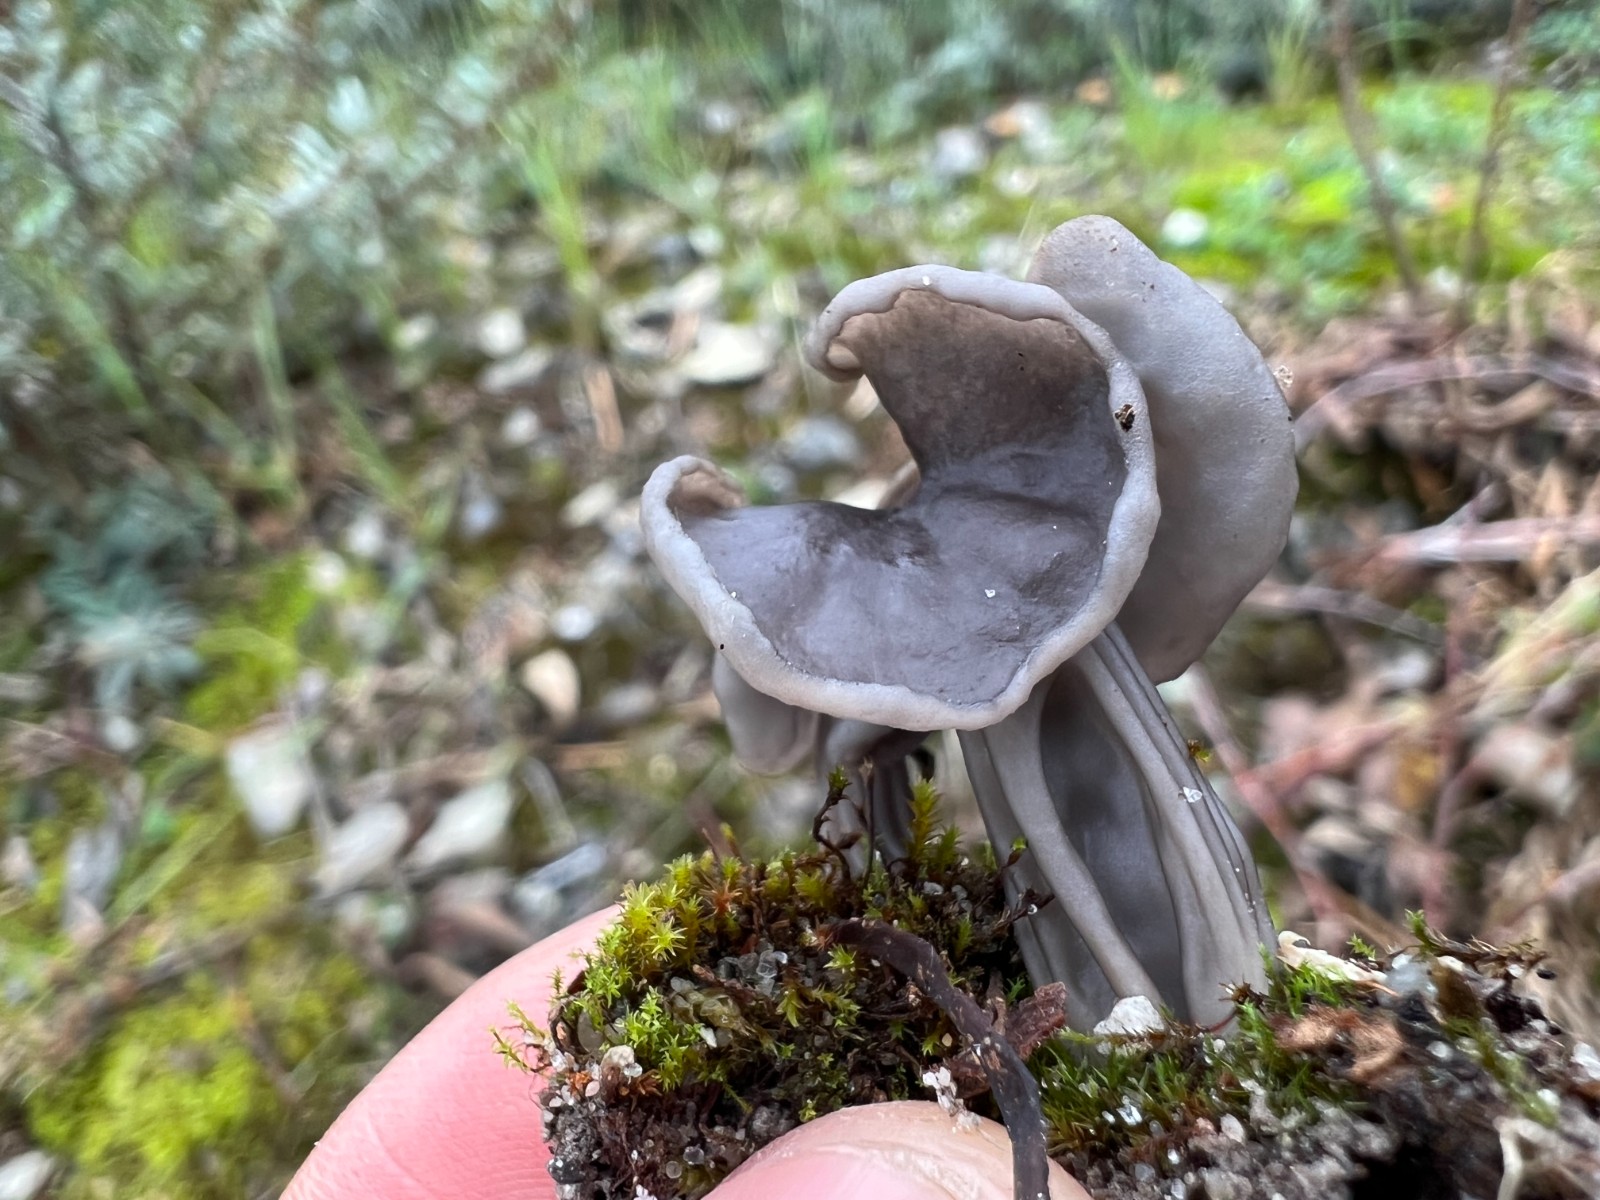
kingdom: Fungi
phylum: Ascomycota
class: Pezizomycetes
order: Pezizales
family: Helvellaceae
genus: Helvella
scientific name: Helvella lacunosa
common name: grubet foldhat
